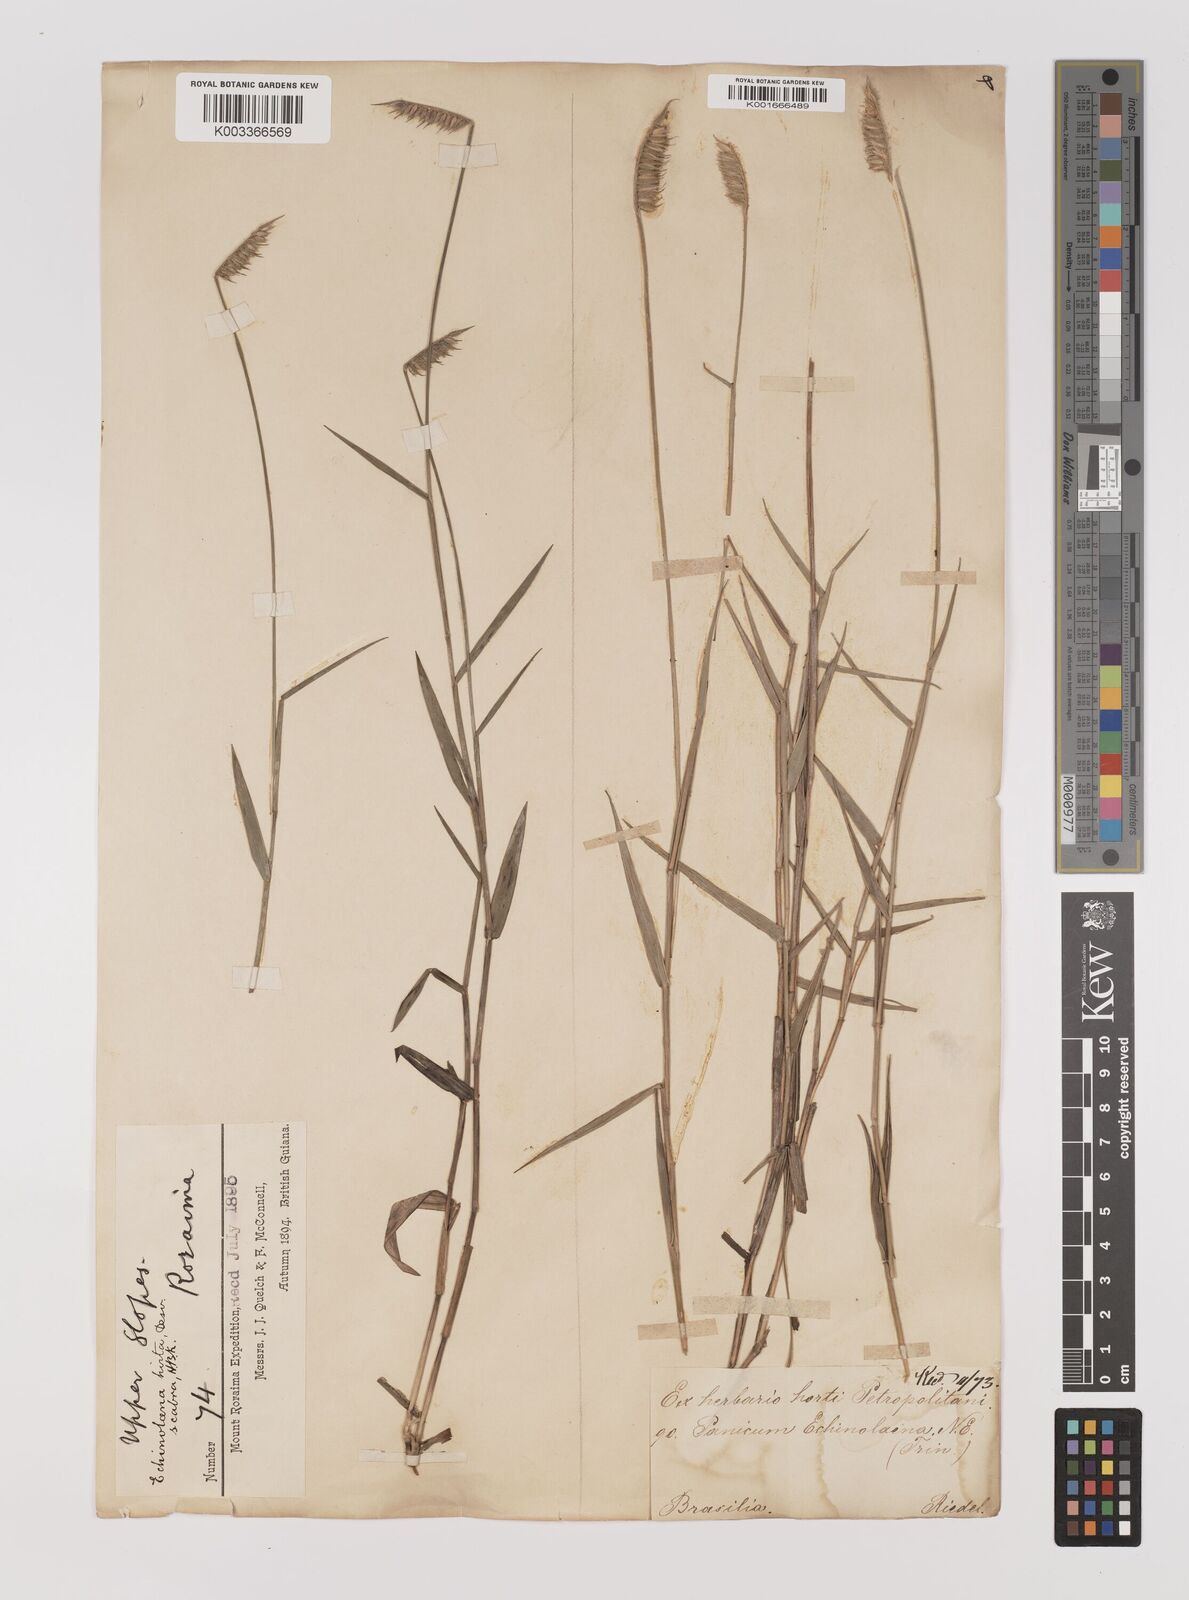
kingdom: Plantae
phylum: Tracheophyta
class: Liliopsida
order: Poales
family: Poaceae
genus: Echinolaena
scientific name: Echinolaena inflexa
